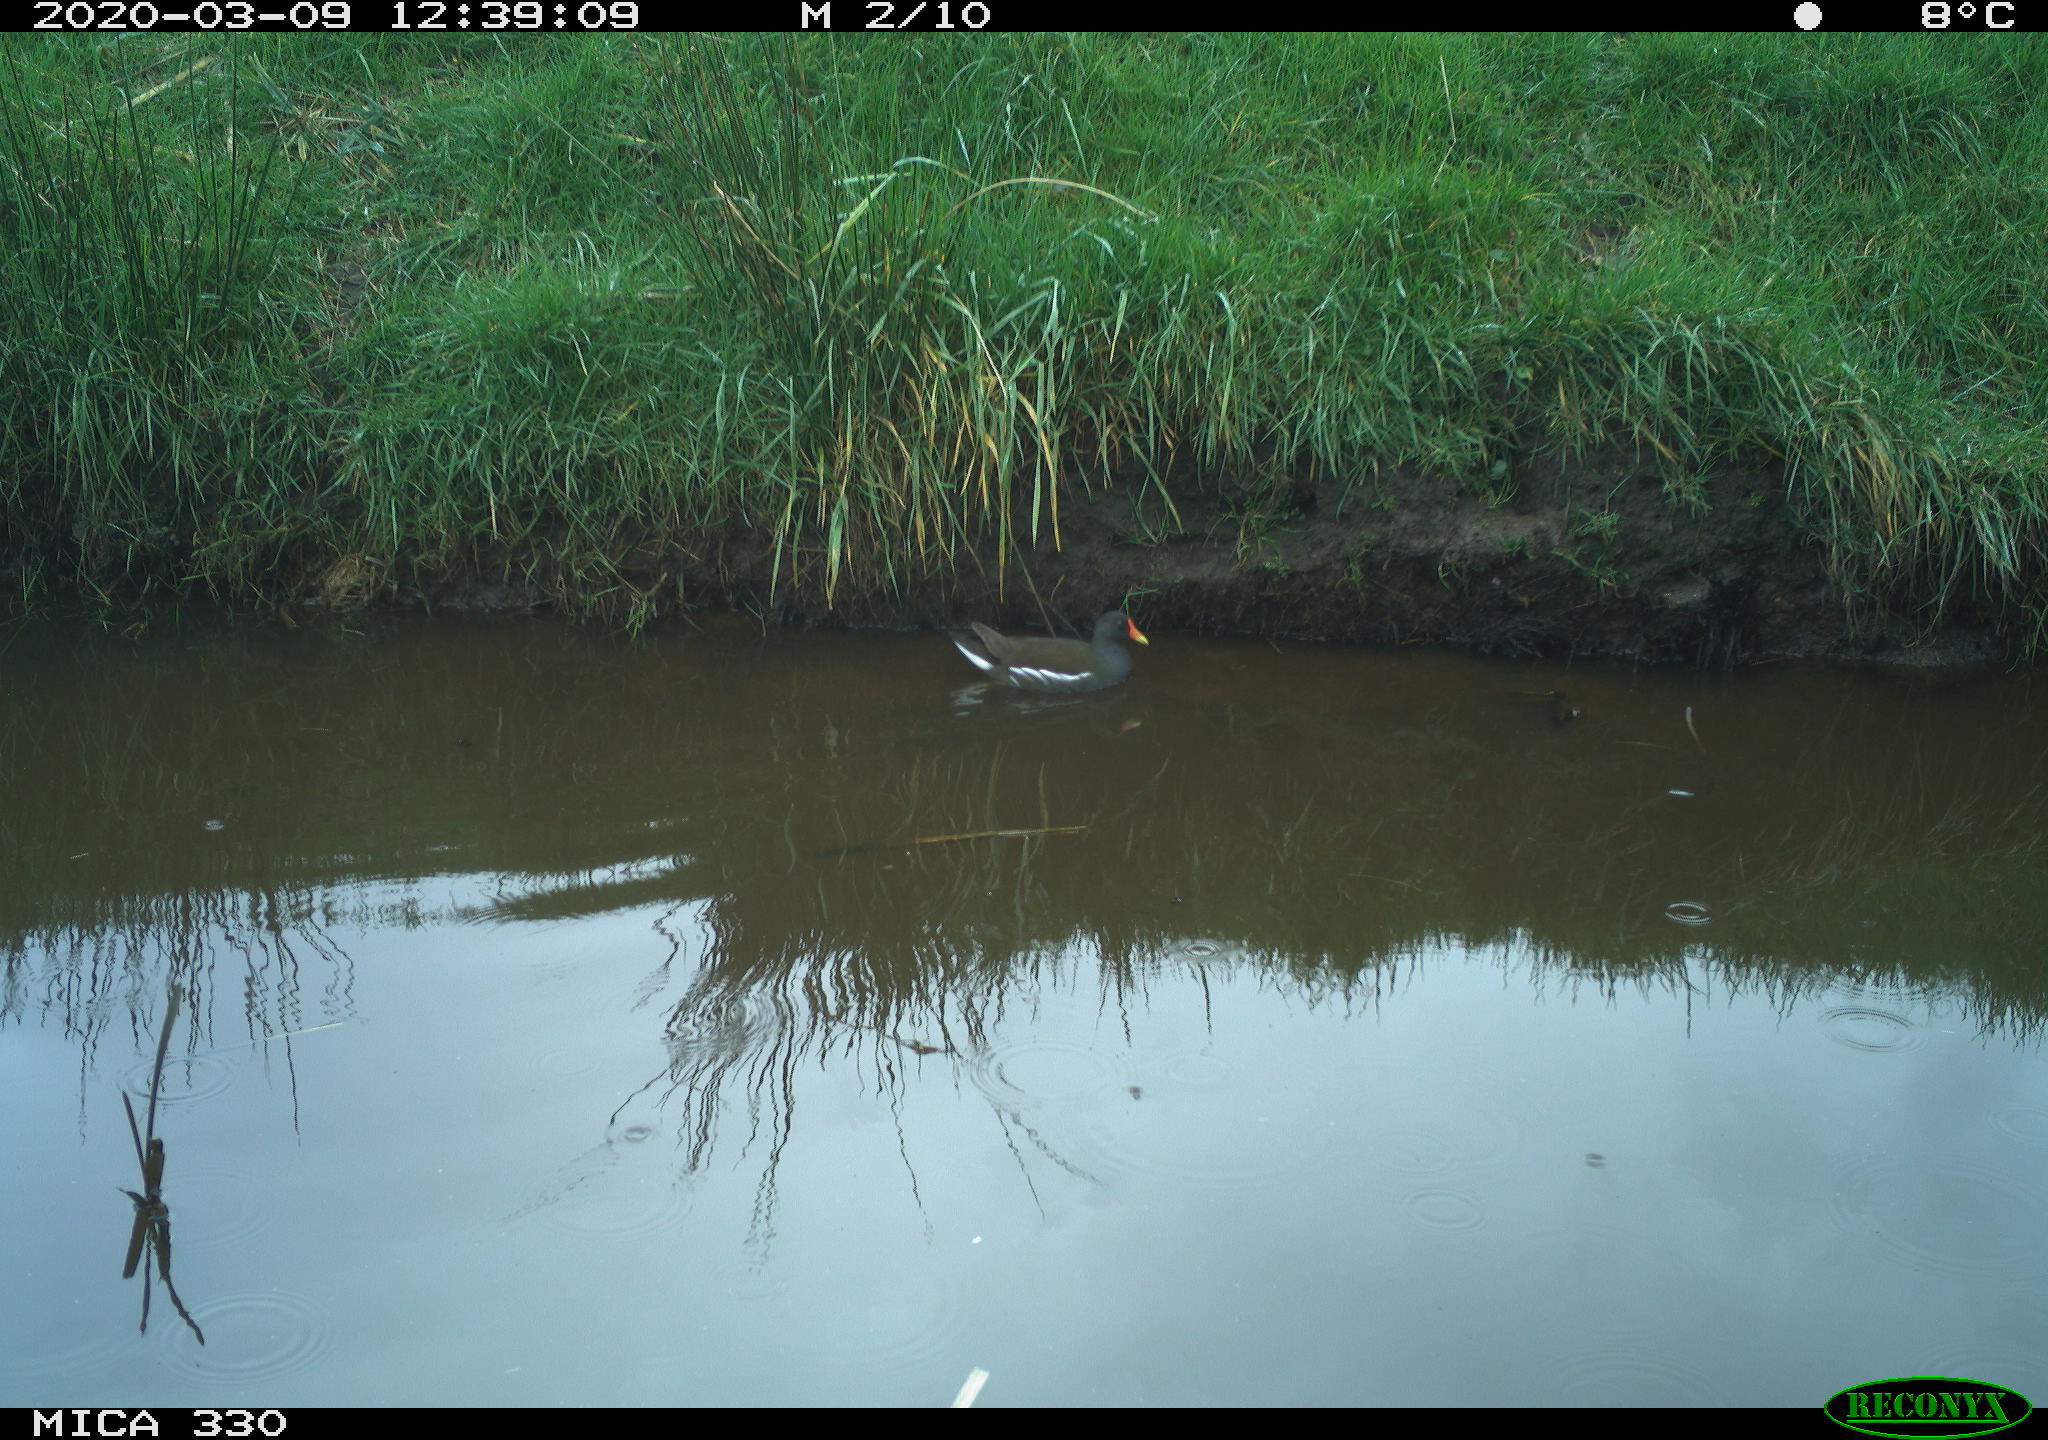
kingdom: Animalia
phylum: Chordata
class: Aves
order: Gruiformes
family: Rallidae
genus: Gallinula
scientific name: Gallinula chloropus
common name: Common moorhen
